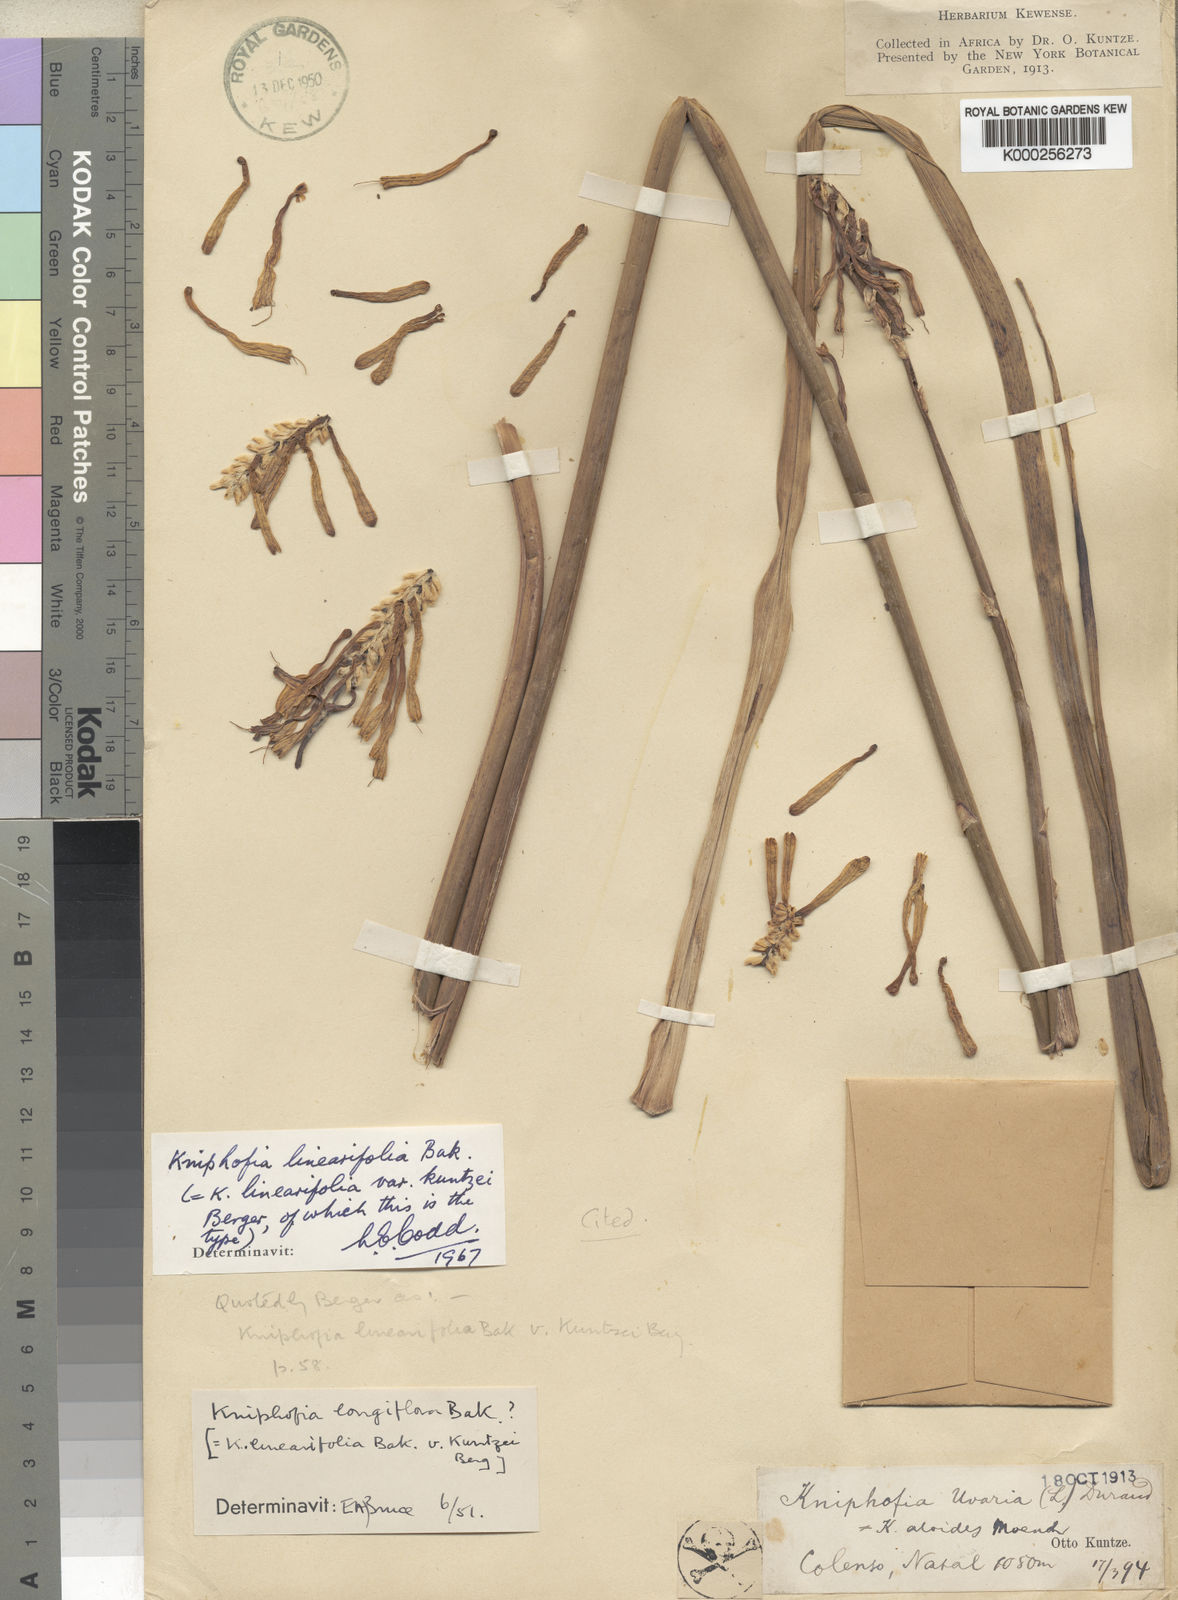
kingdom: Plantae
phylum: Tracheophyta
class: Liliopsida
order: Asparagales
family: Asphodelaceae
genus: Kniphofia
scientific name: Kniphofia linearifolia
